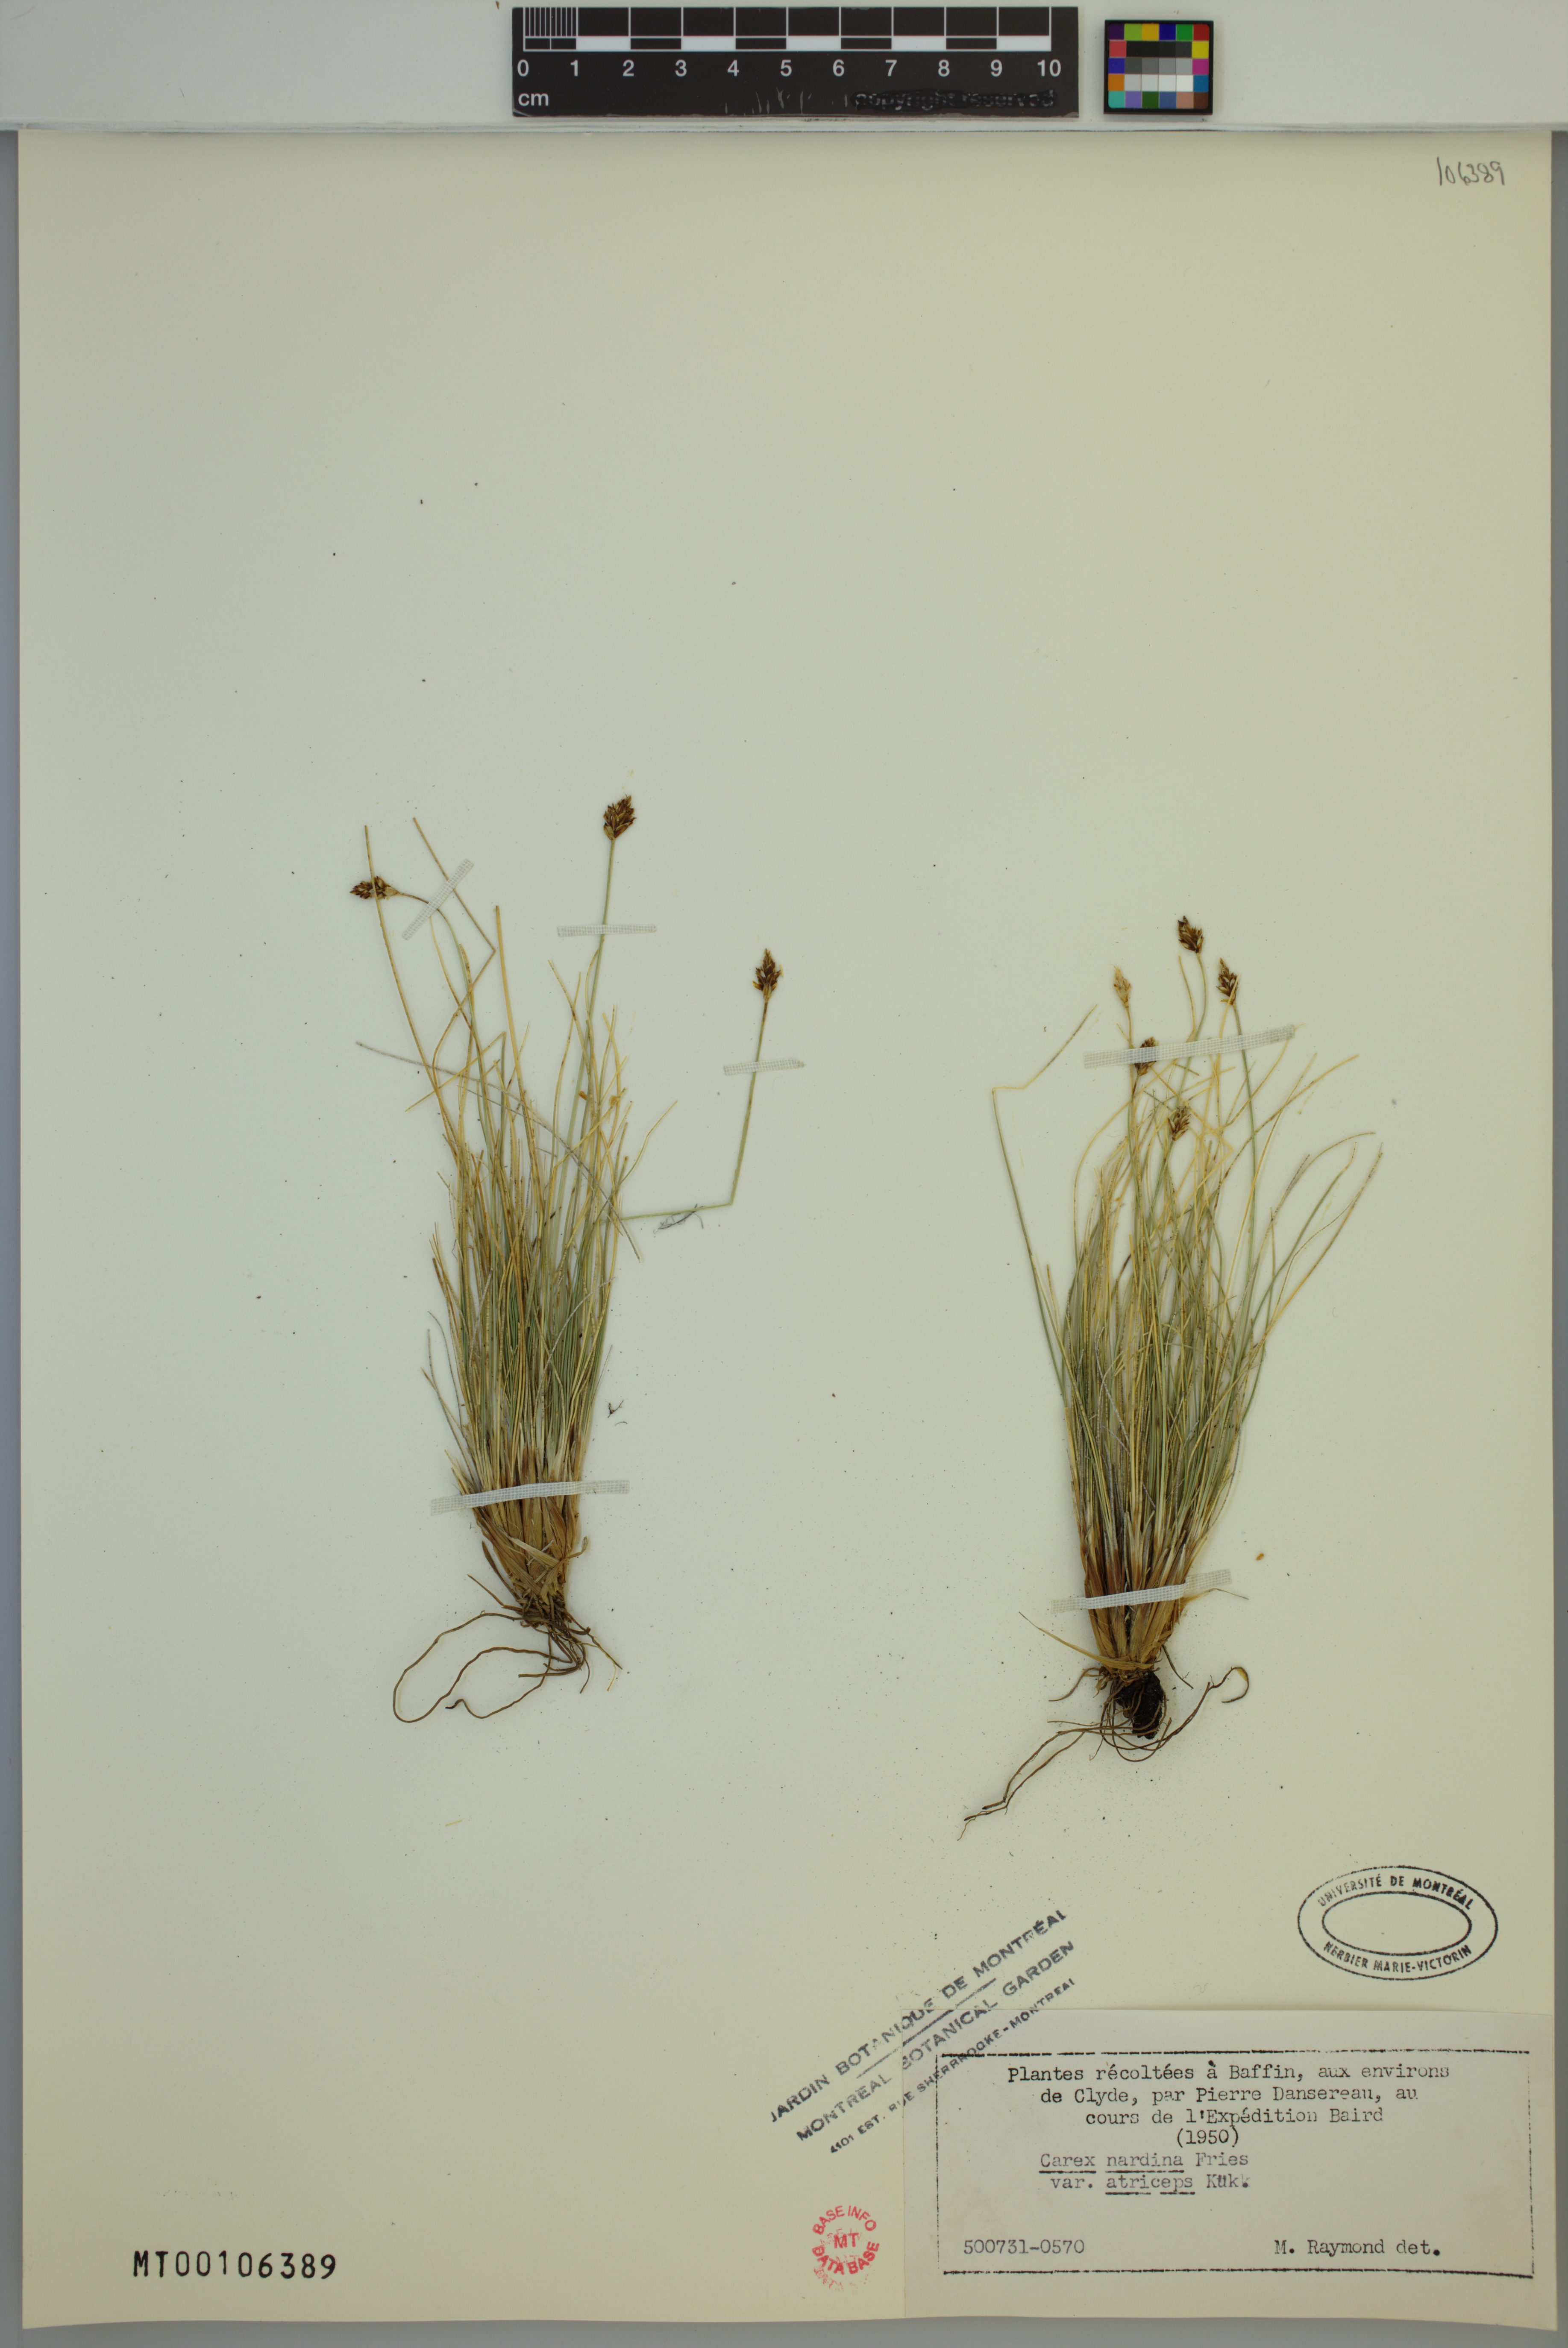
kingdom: Plantae
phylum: Tracheophyta
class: Liliopsida
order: Poales
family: Cyperaceae
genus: Carex
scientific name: Carex nardina
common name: Nard sedge
